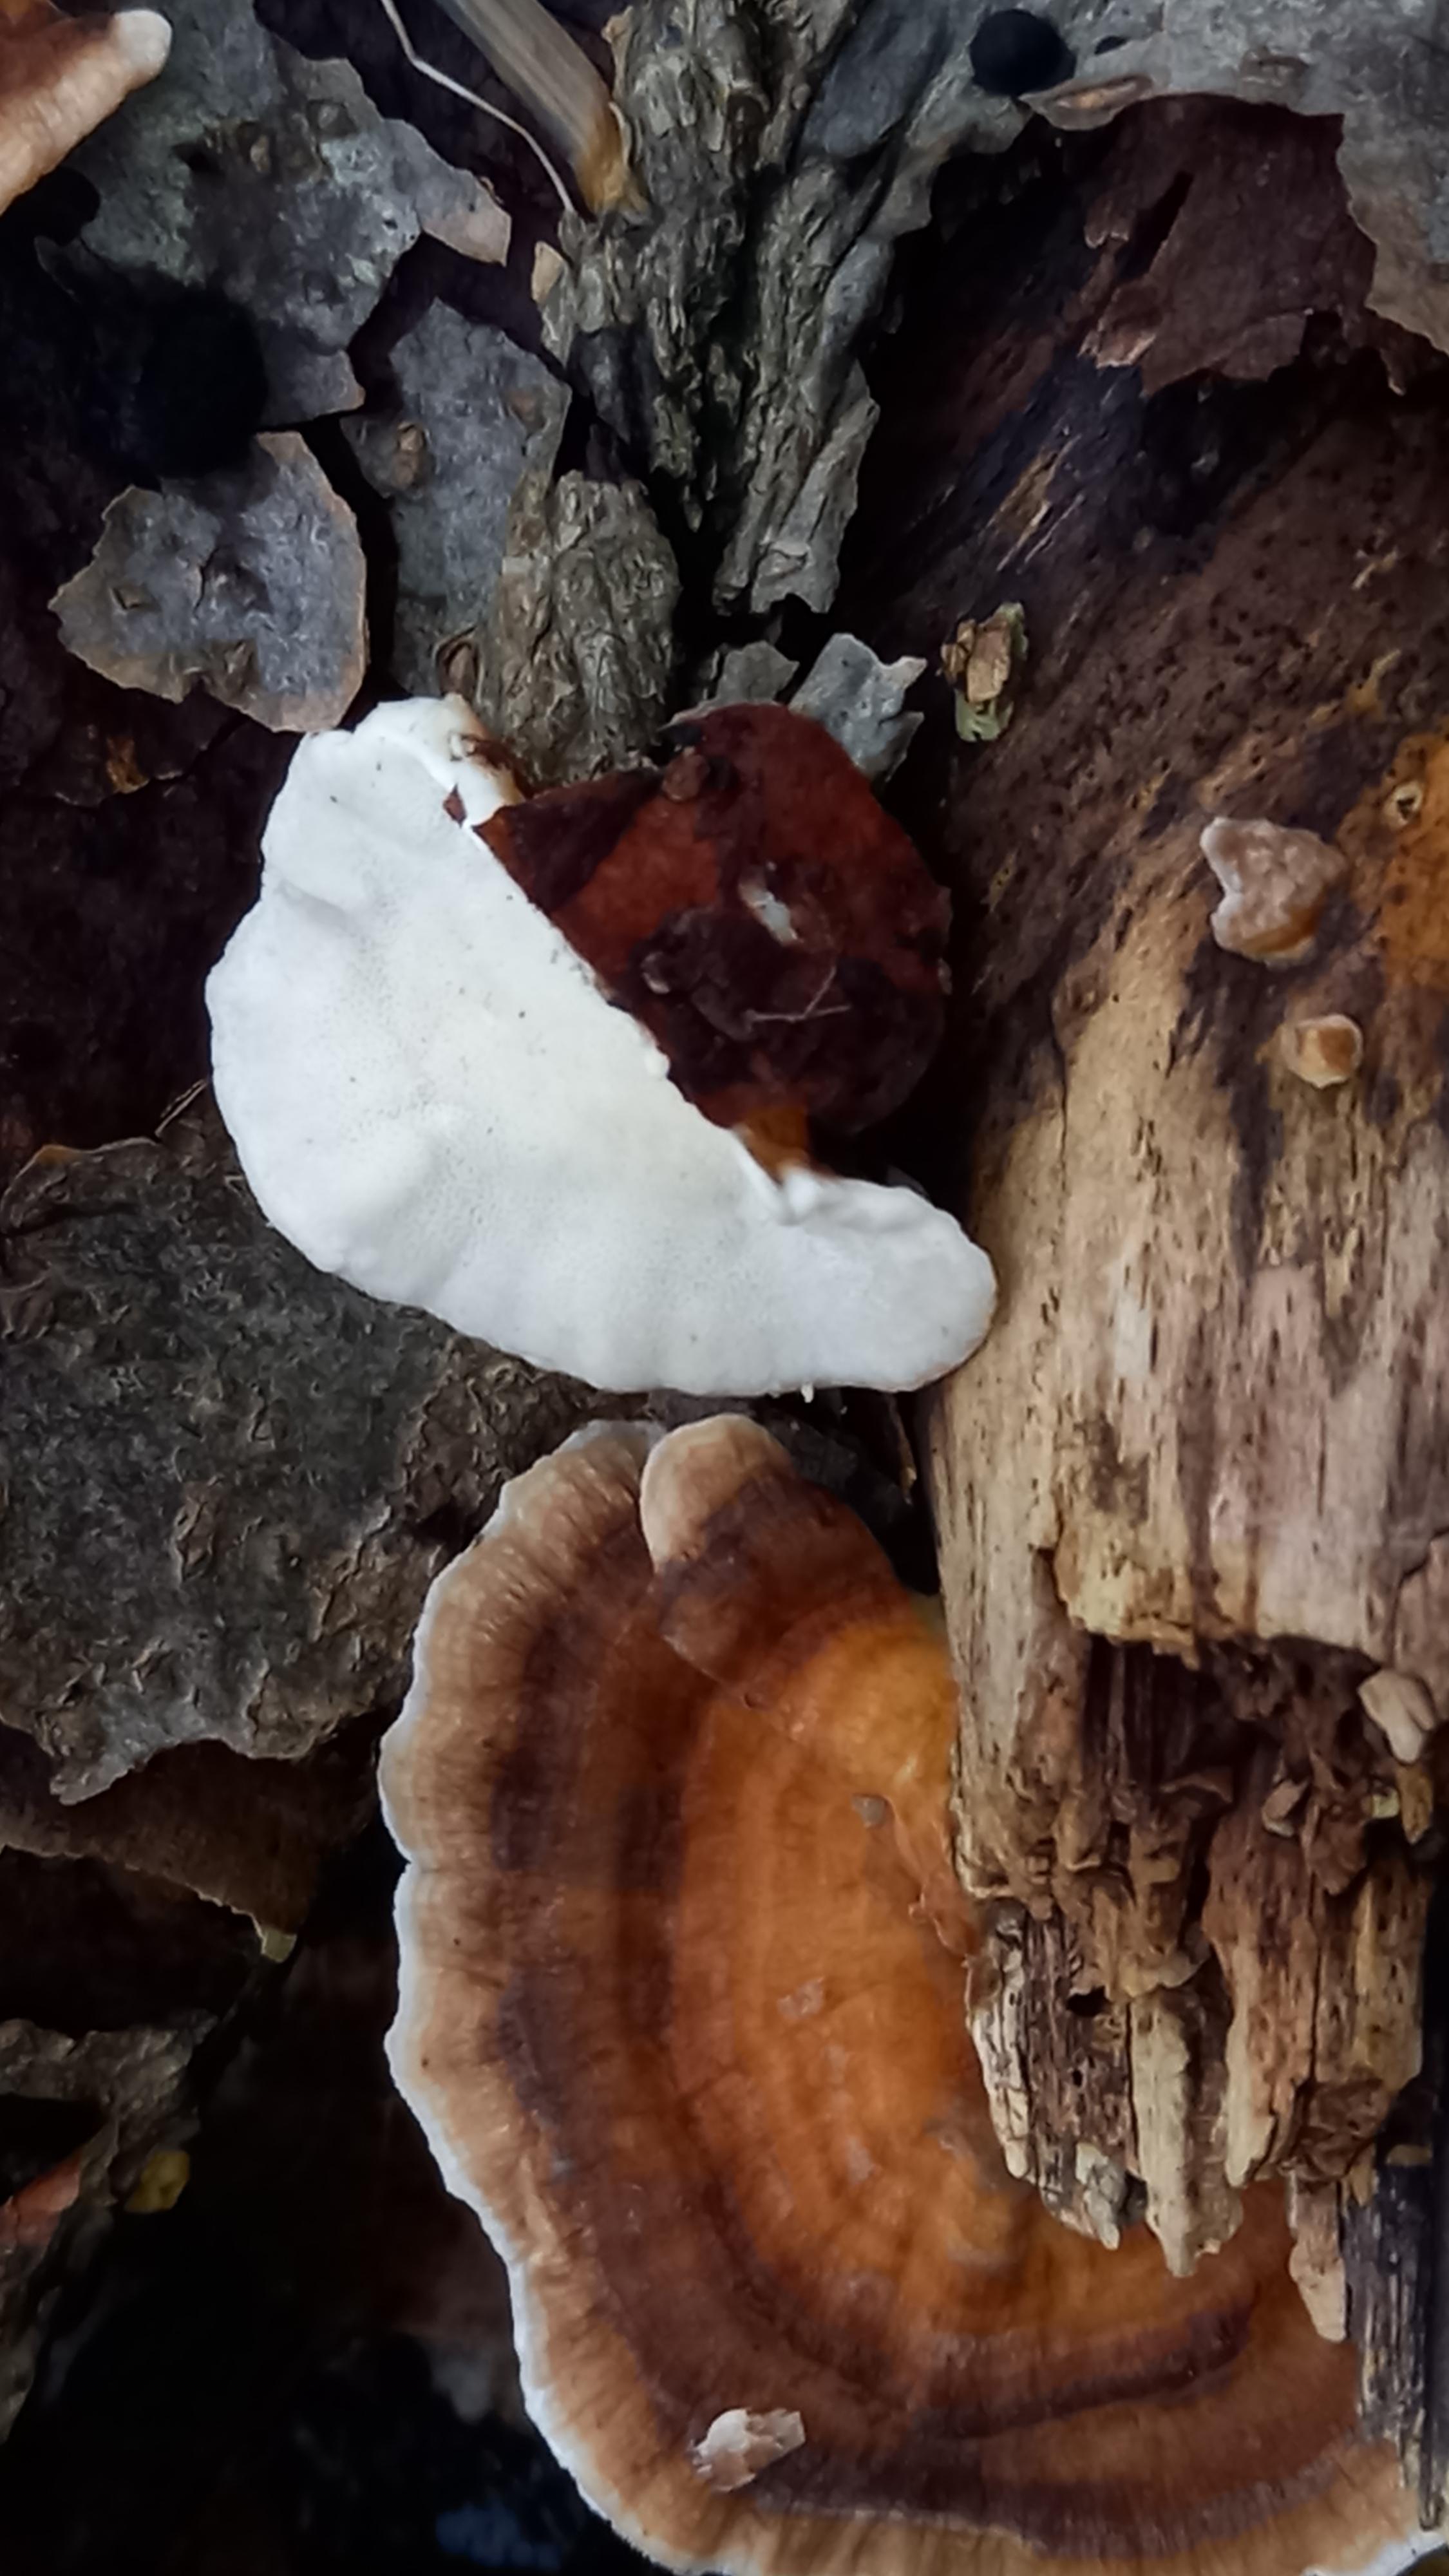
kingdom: Fungi
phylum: Basidiomycota
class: Agaricomycetes
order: Polyporales
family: Polyporaceae
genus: Trametes
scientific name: Trametes ochracea
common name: bæltet læderporesvamp
